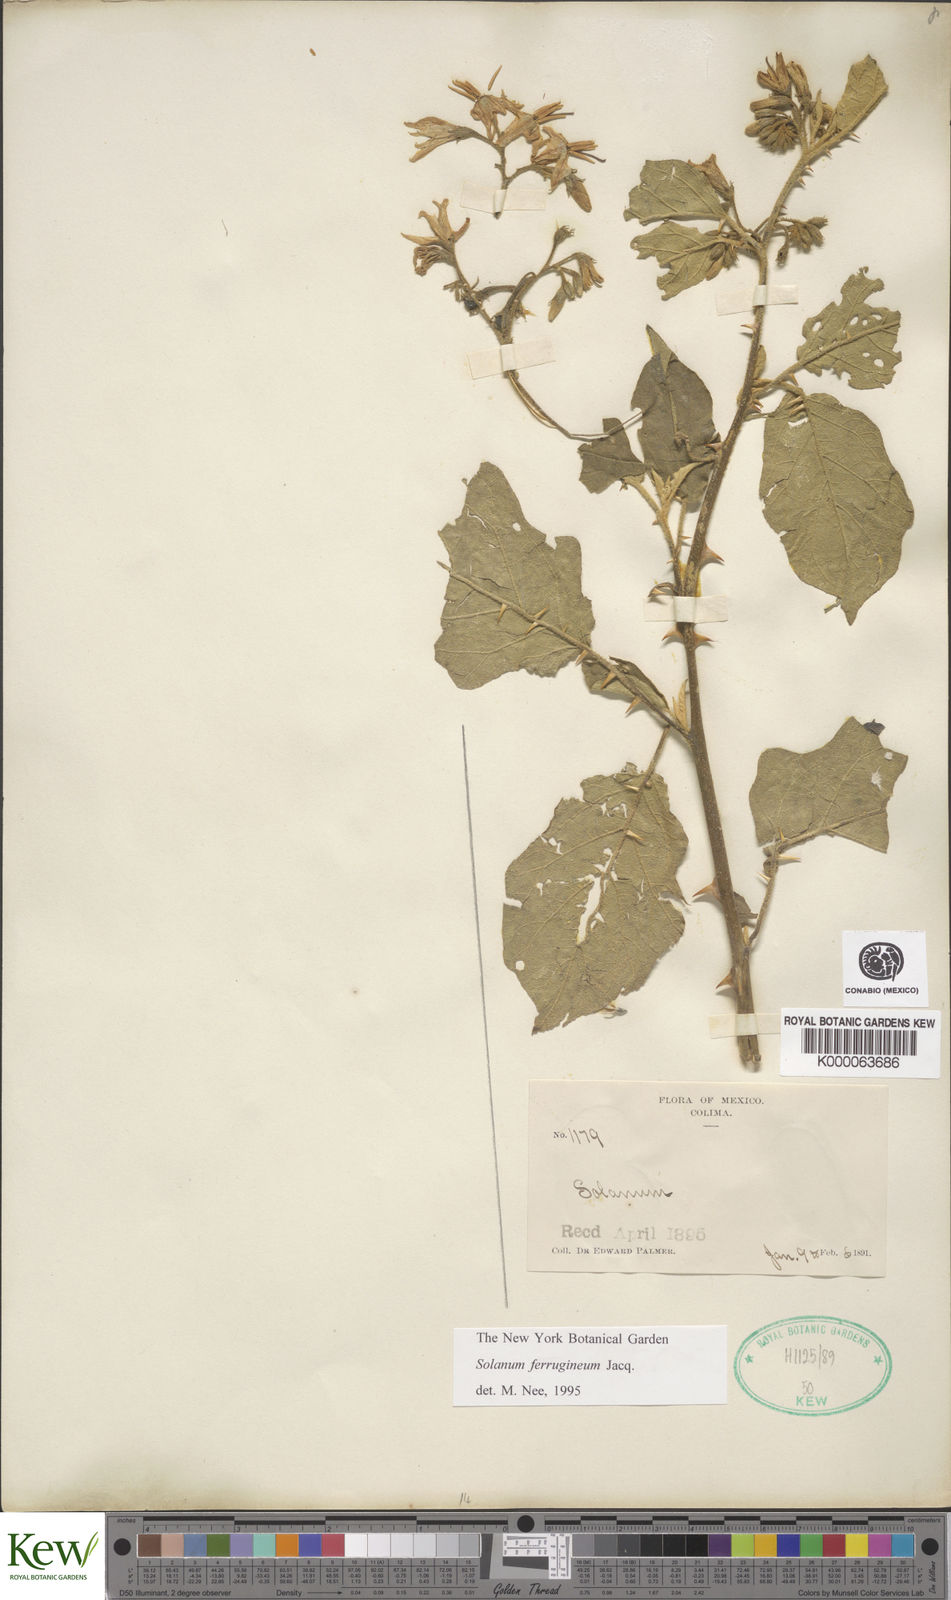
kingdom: Plantae
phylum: Tracheophyta
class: Magnoliopsida
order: Solanales
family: Solanaceae
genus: Solanum
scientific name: Solanum
